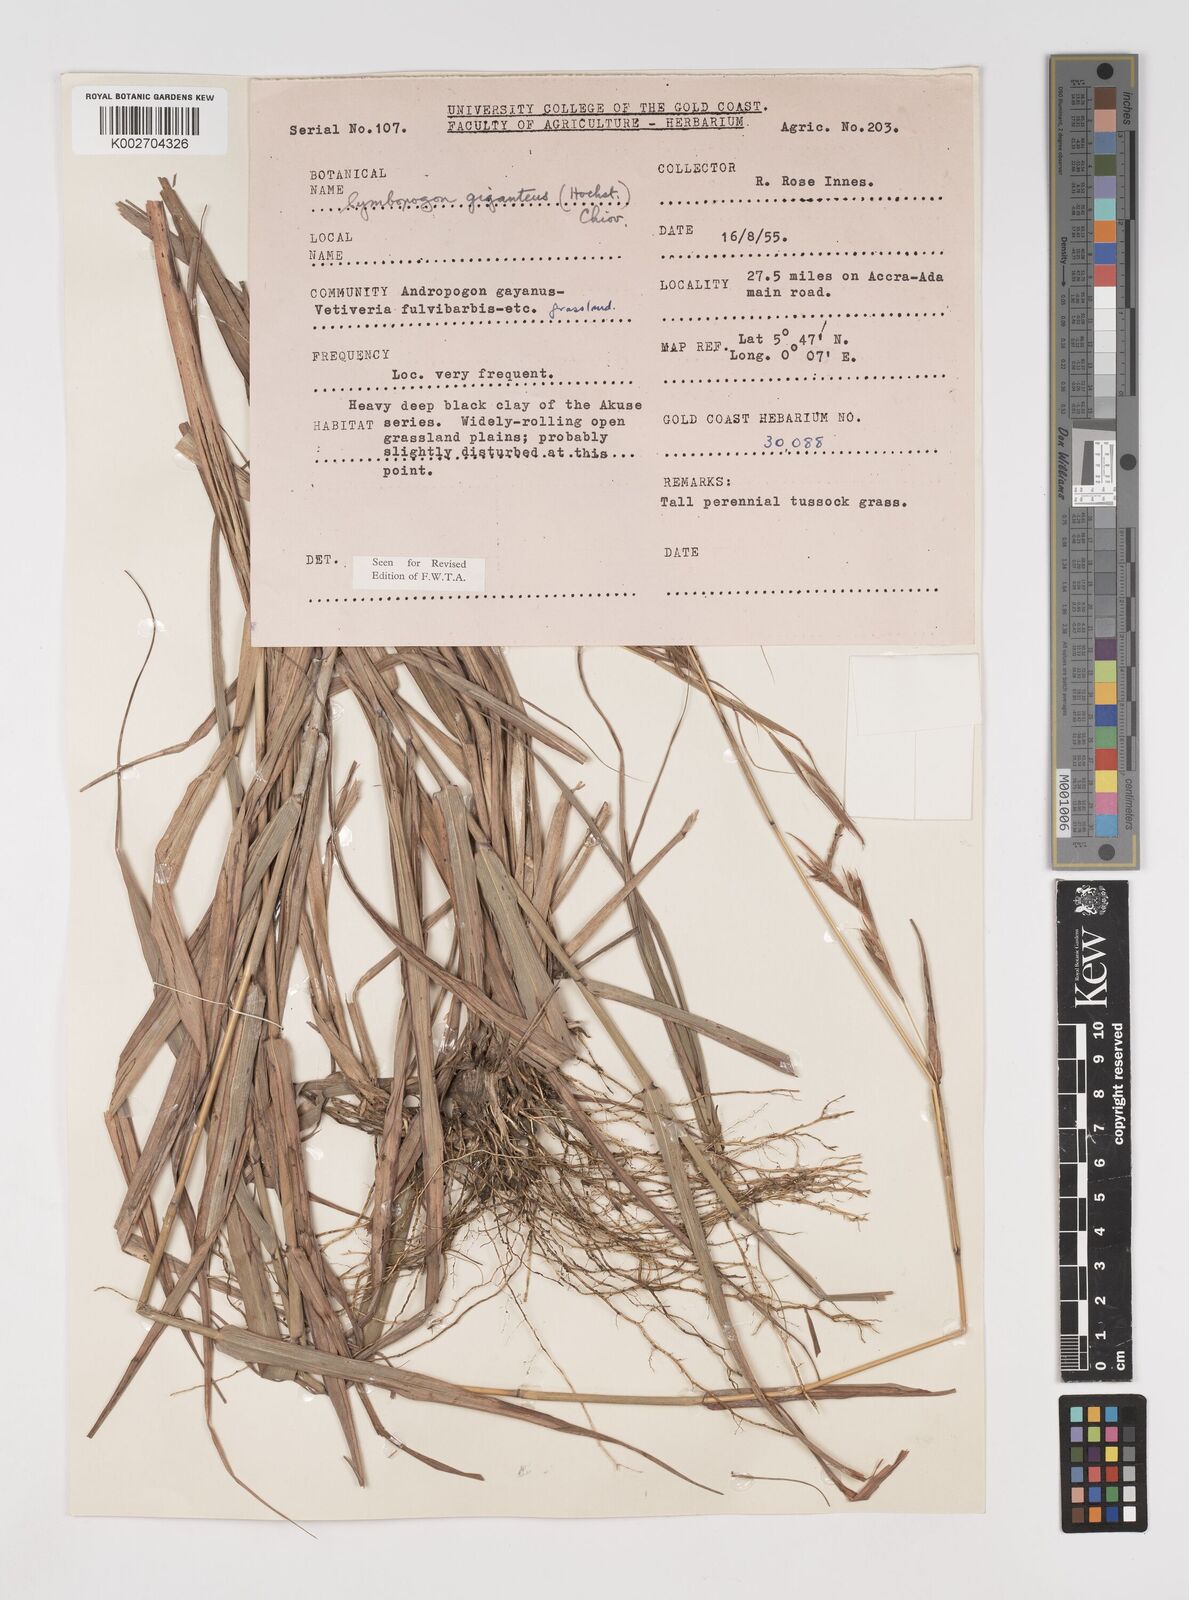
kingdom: Plantae
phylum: Tracheophyta
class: Liliopsida
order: Poales
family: Poaceae
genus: Cymbopogon
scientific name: Cymbopogon giganteus
